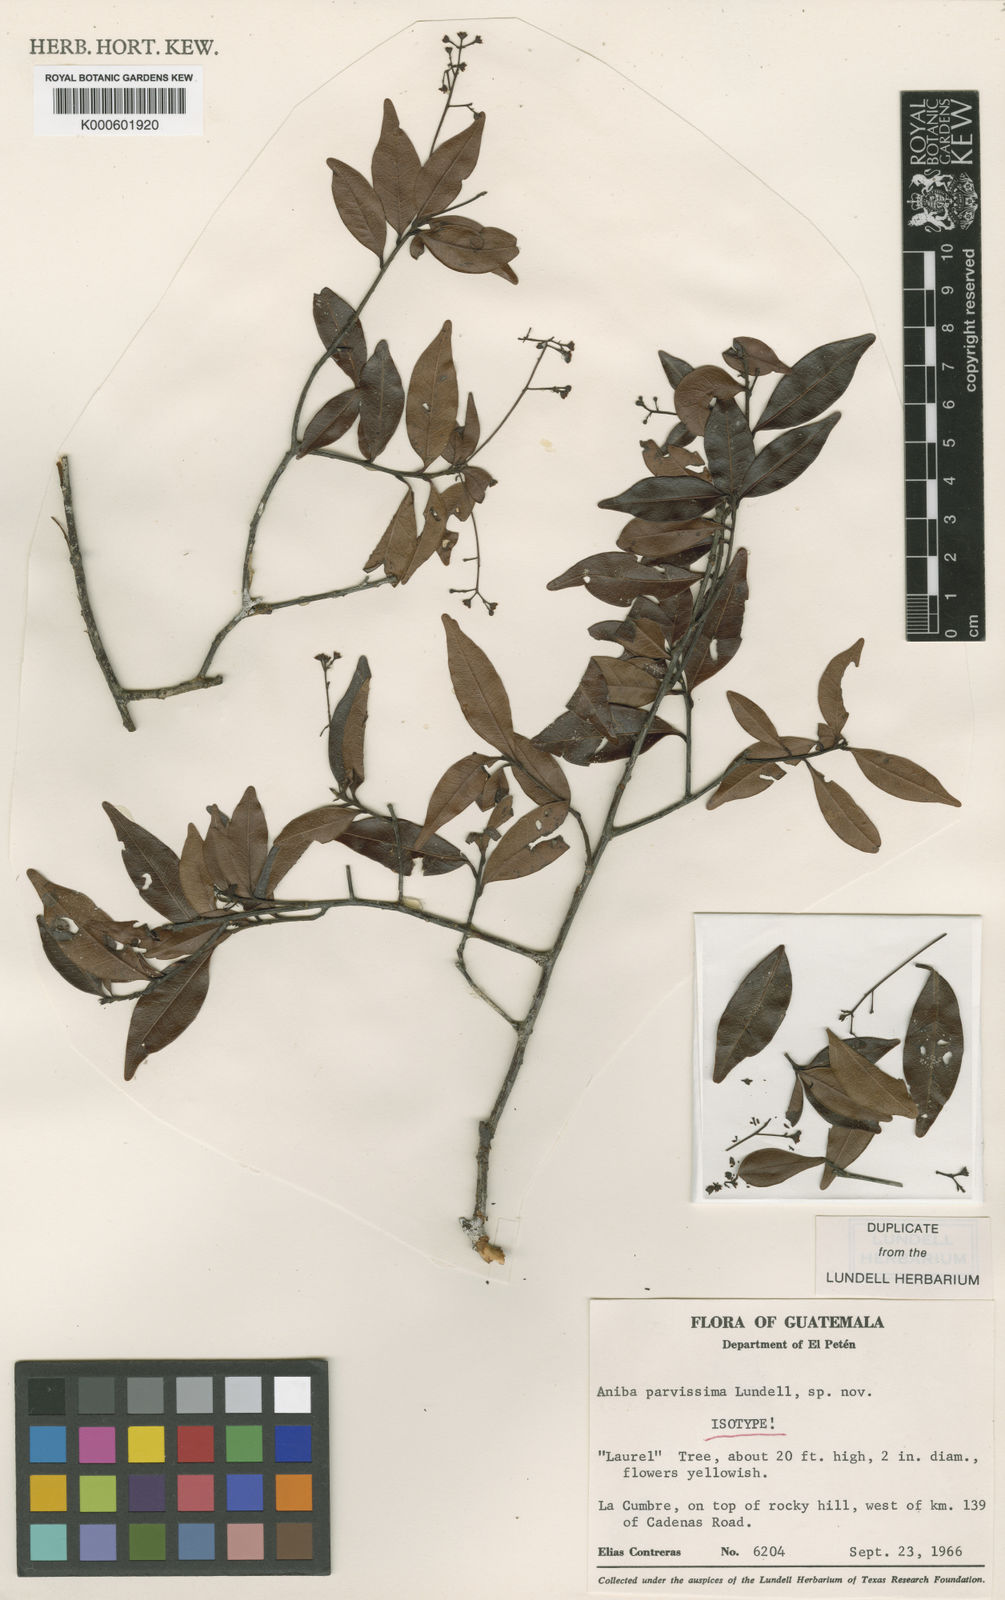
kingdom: Plantae
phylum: Tracheophyta
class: Magnoliopsida
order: Laurales
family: Lauraceae
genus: Damburneya
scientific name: Damburneya parvissima
